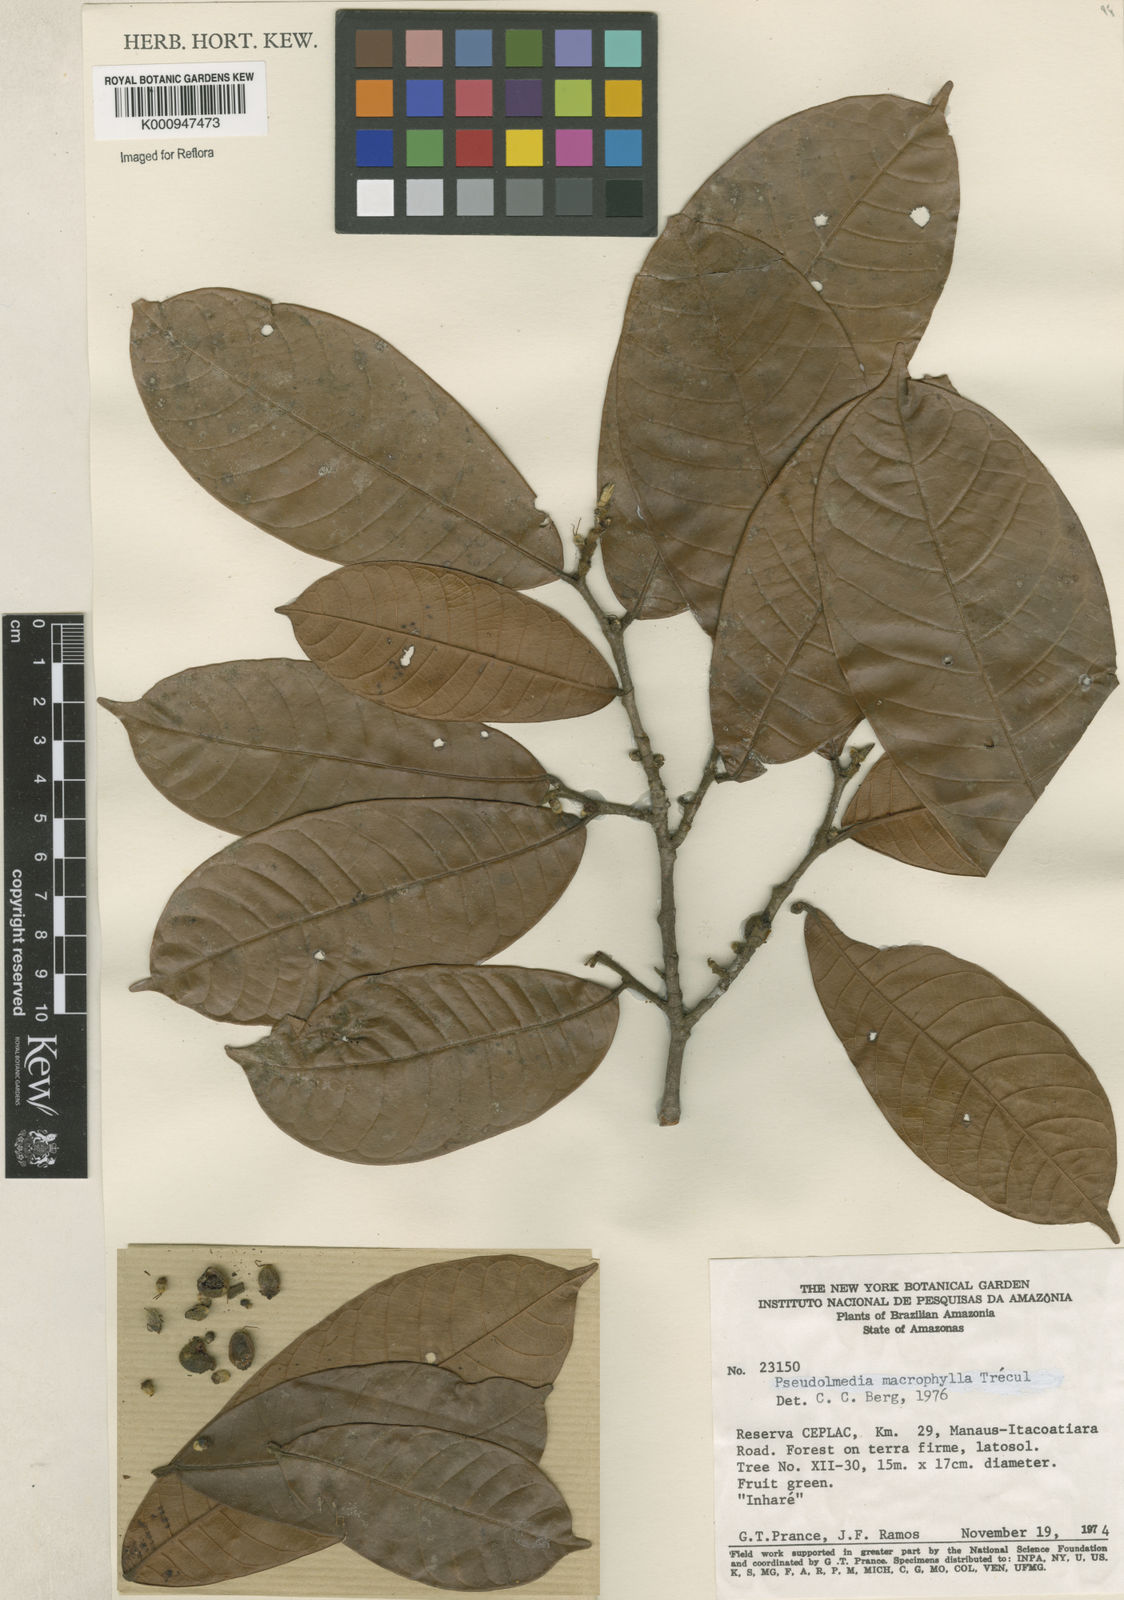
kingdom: Plantae
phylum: Tracheophyta
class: Magnoliopsida
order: Rosales
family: Moraceae
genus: Pseudolmedia
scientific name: Pseudolmedia
